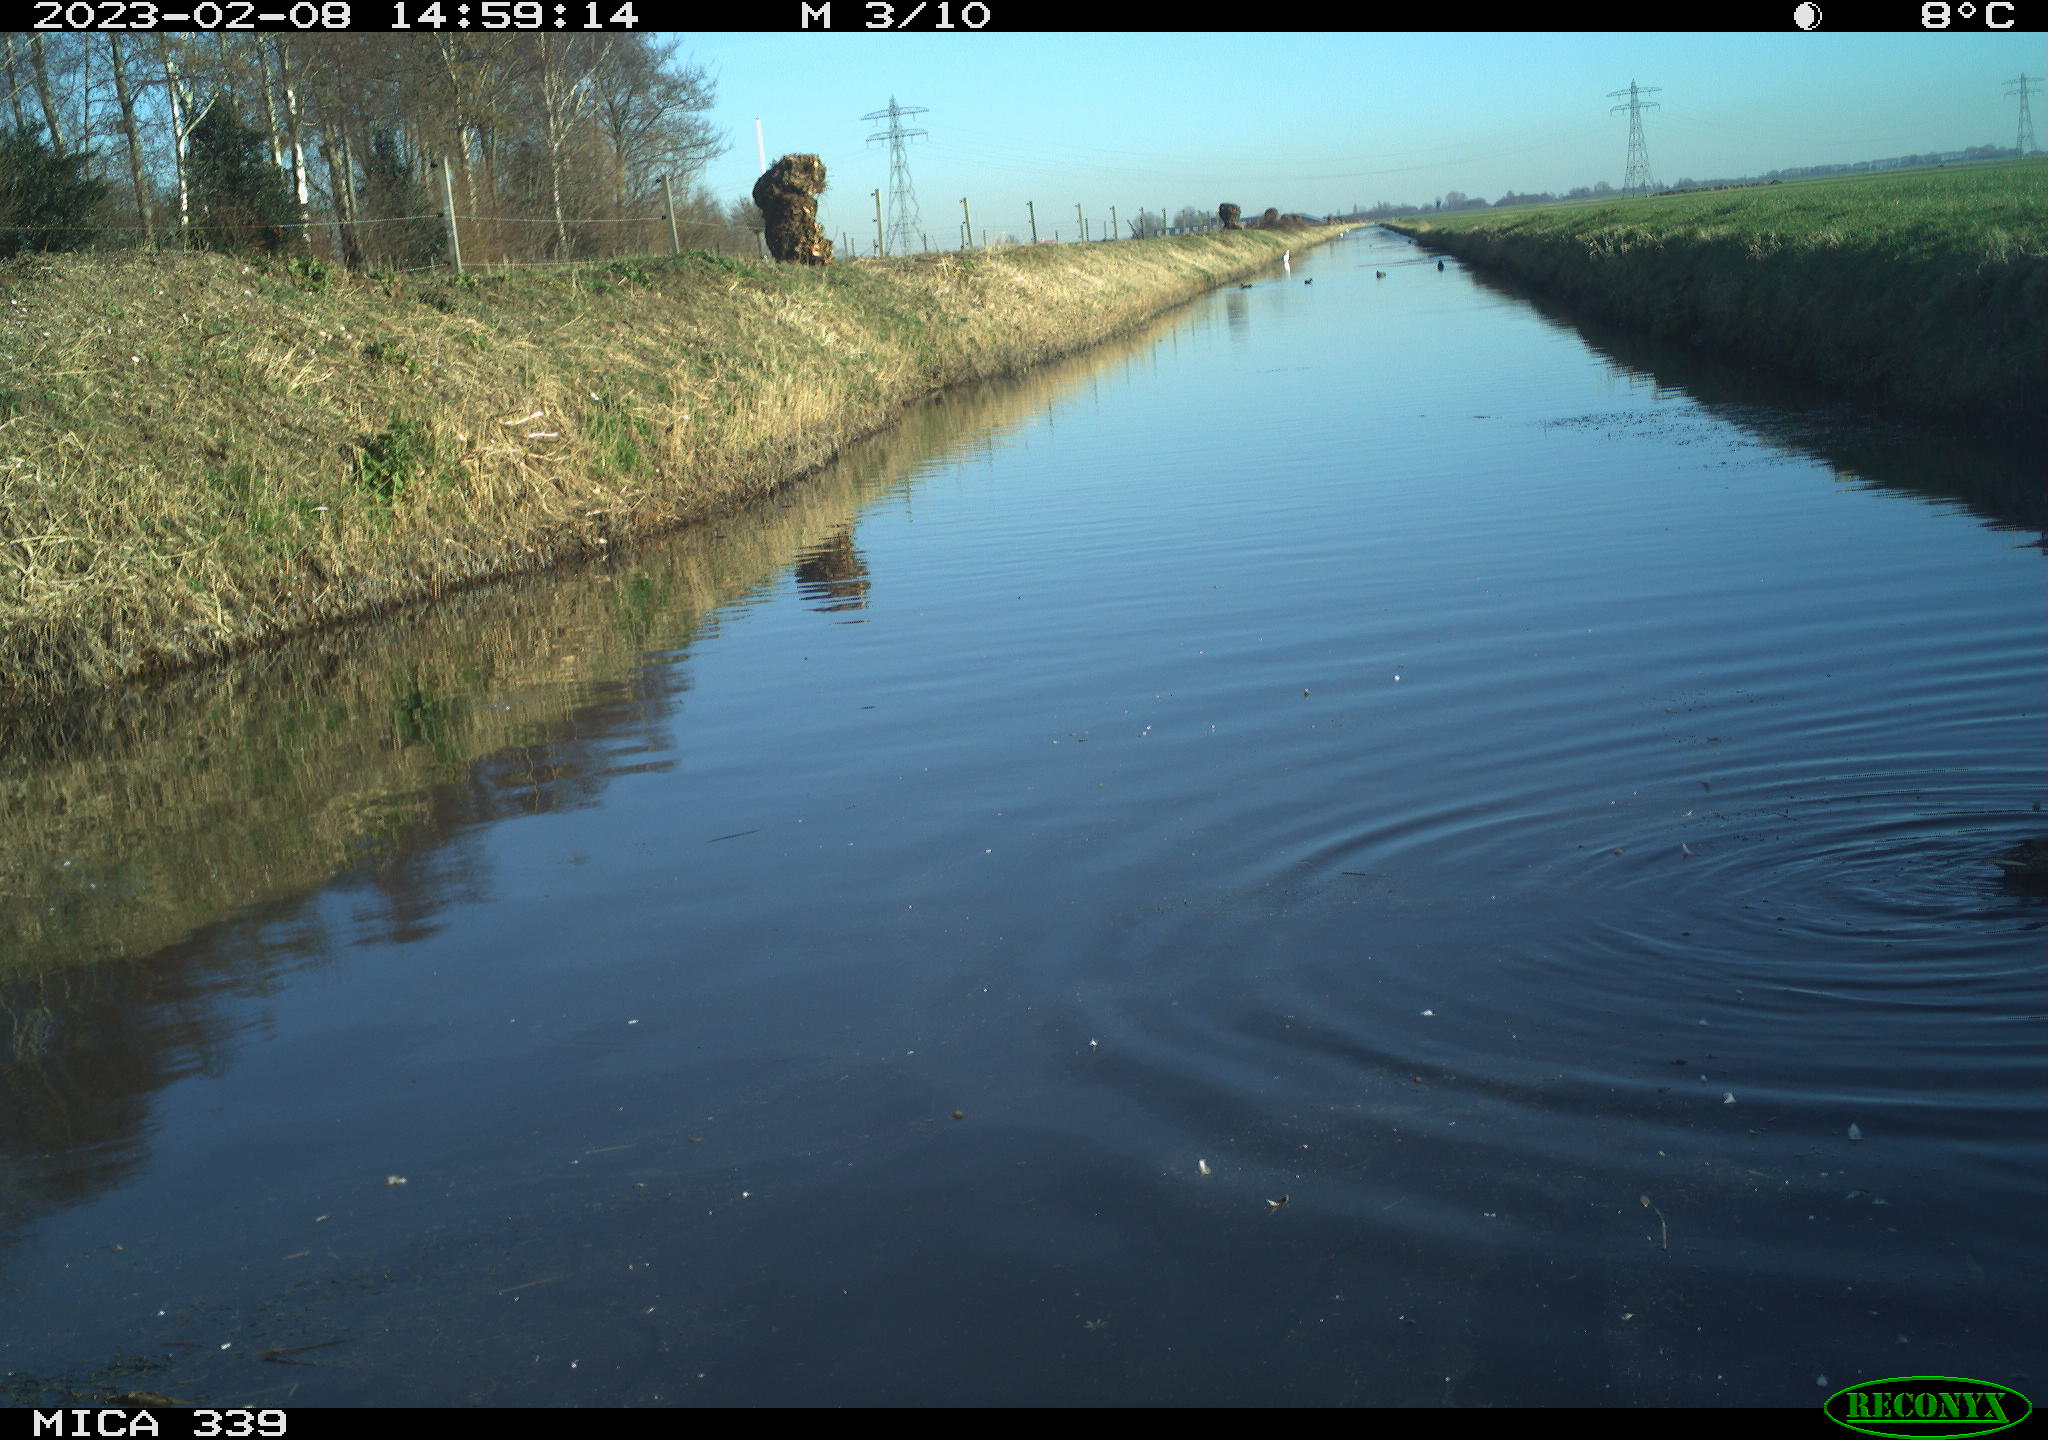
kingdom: Animalia
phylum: Chordata
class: Aves
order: Anseriformes
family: Anatidae
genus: Anas
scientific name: Anas
